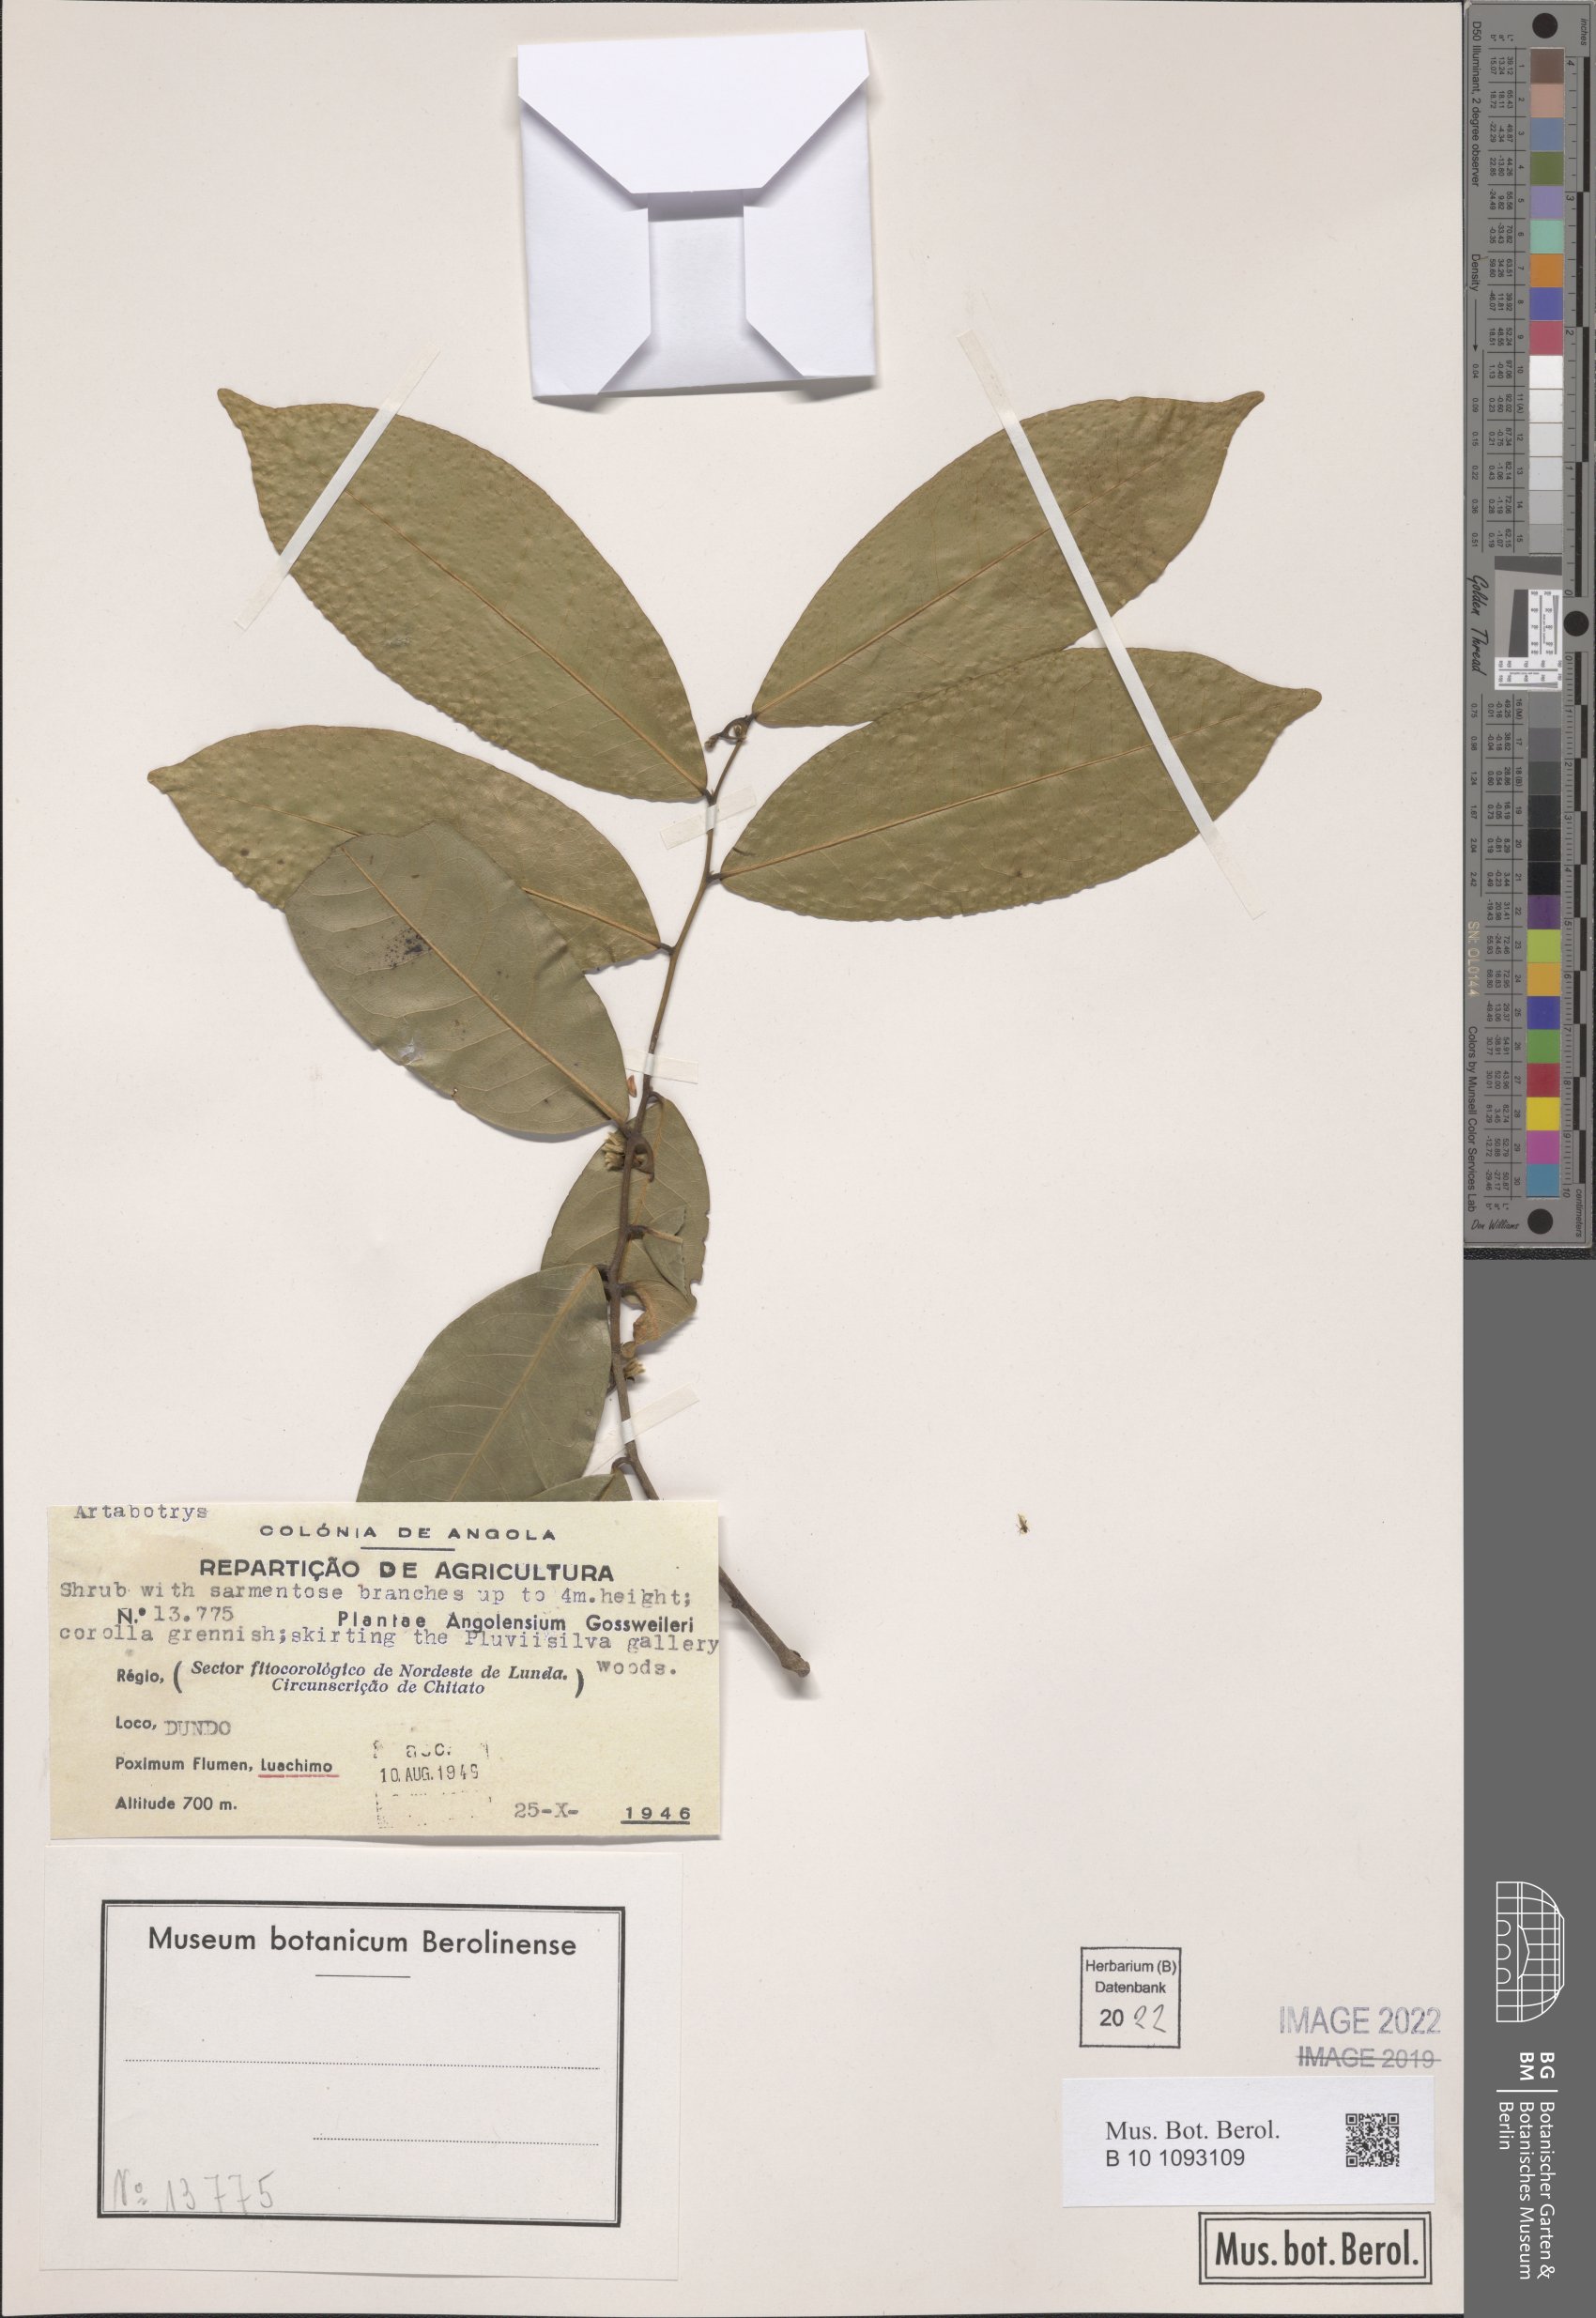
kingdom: Plantae
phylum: Tracheophyta
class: Magnoliopsida
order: Magnoliales
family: Annonaceae
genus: Artabotrys
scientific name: Artabotrys
